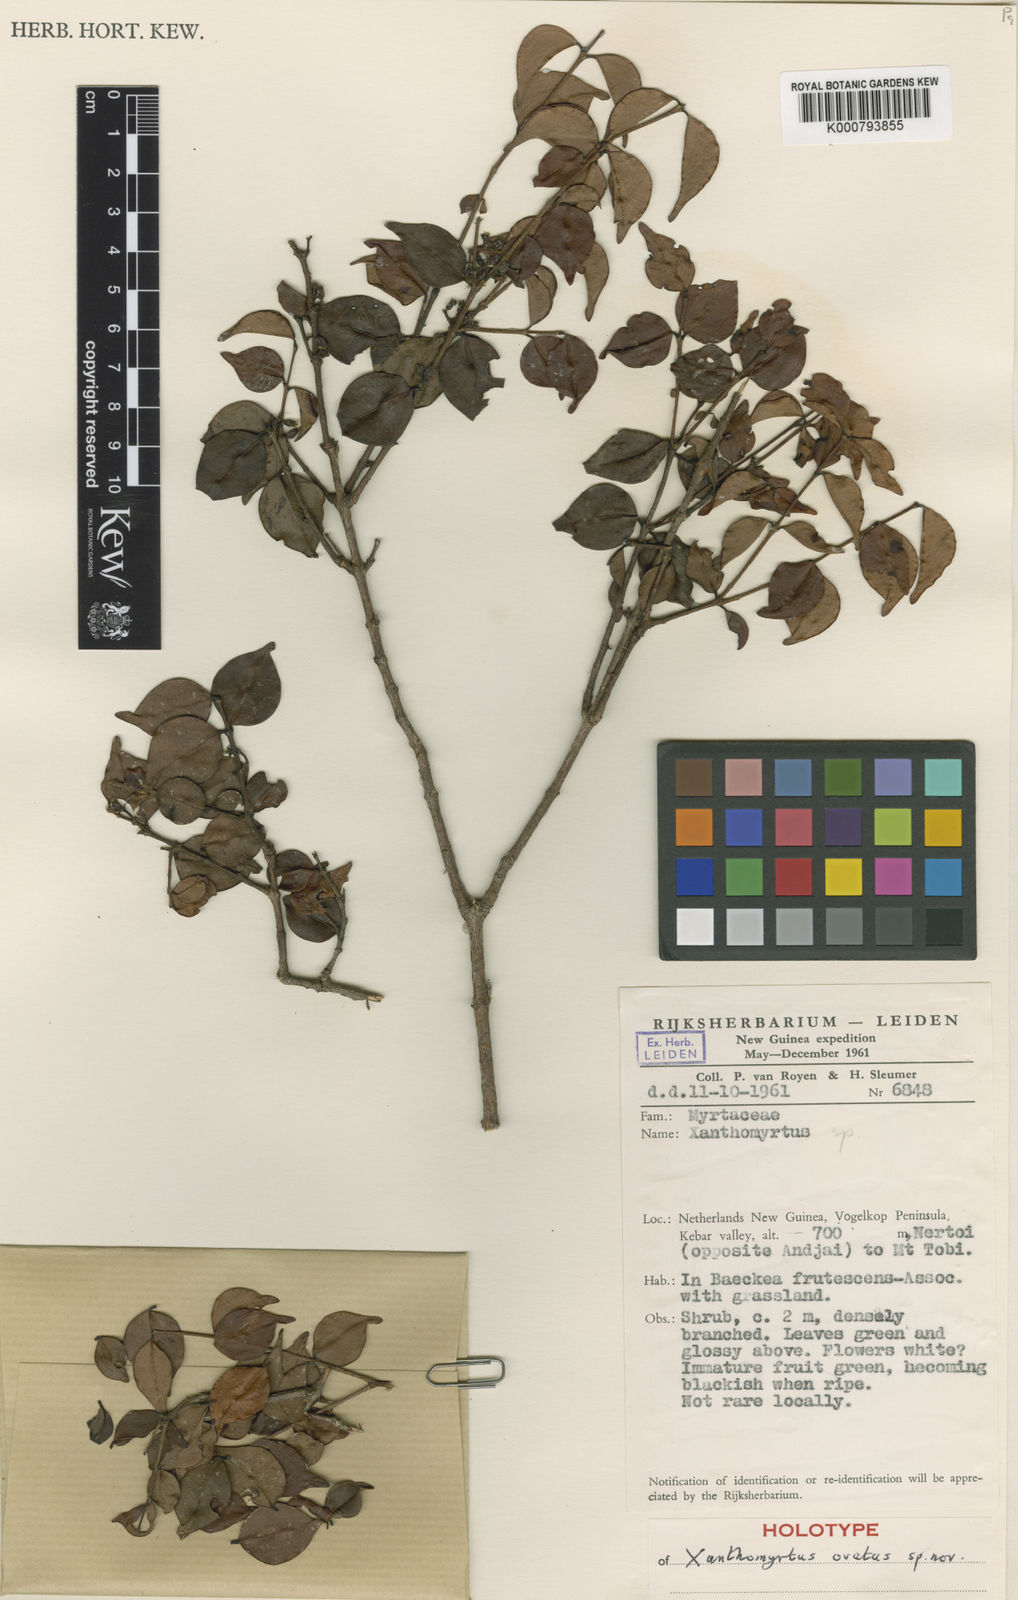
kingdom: Plantae
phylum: Tracheophyta
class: Magnoliopsida
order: Myrtales
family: Myrtaceae
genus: Xanthomyrtus
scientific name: Xanthomyrtus ovata
